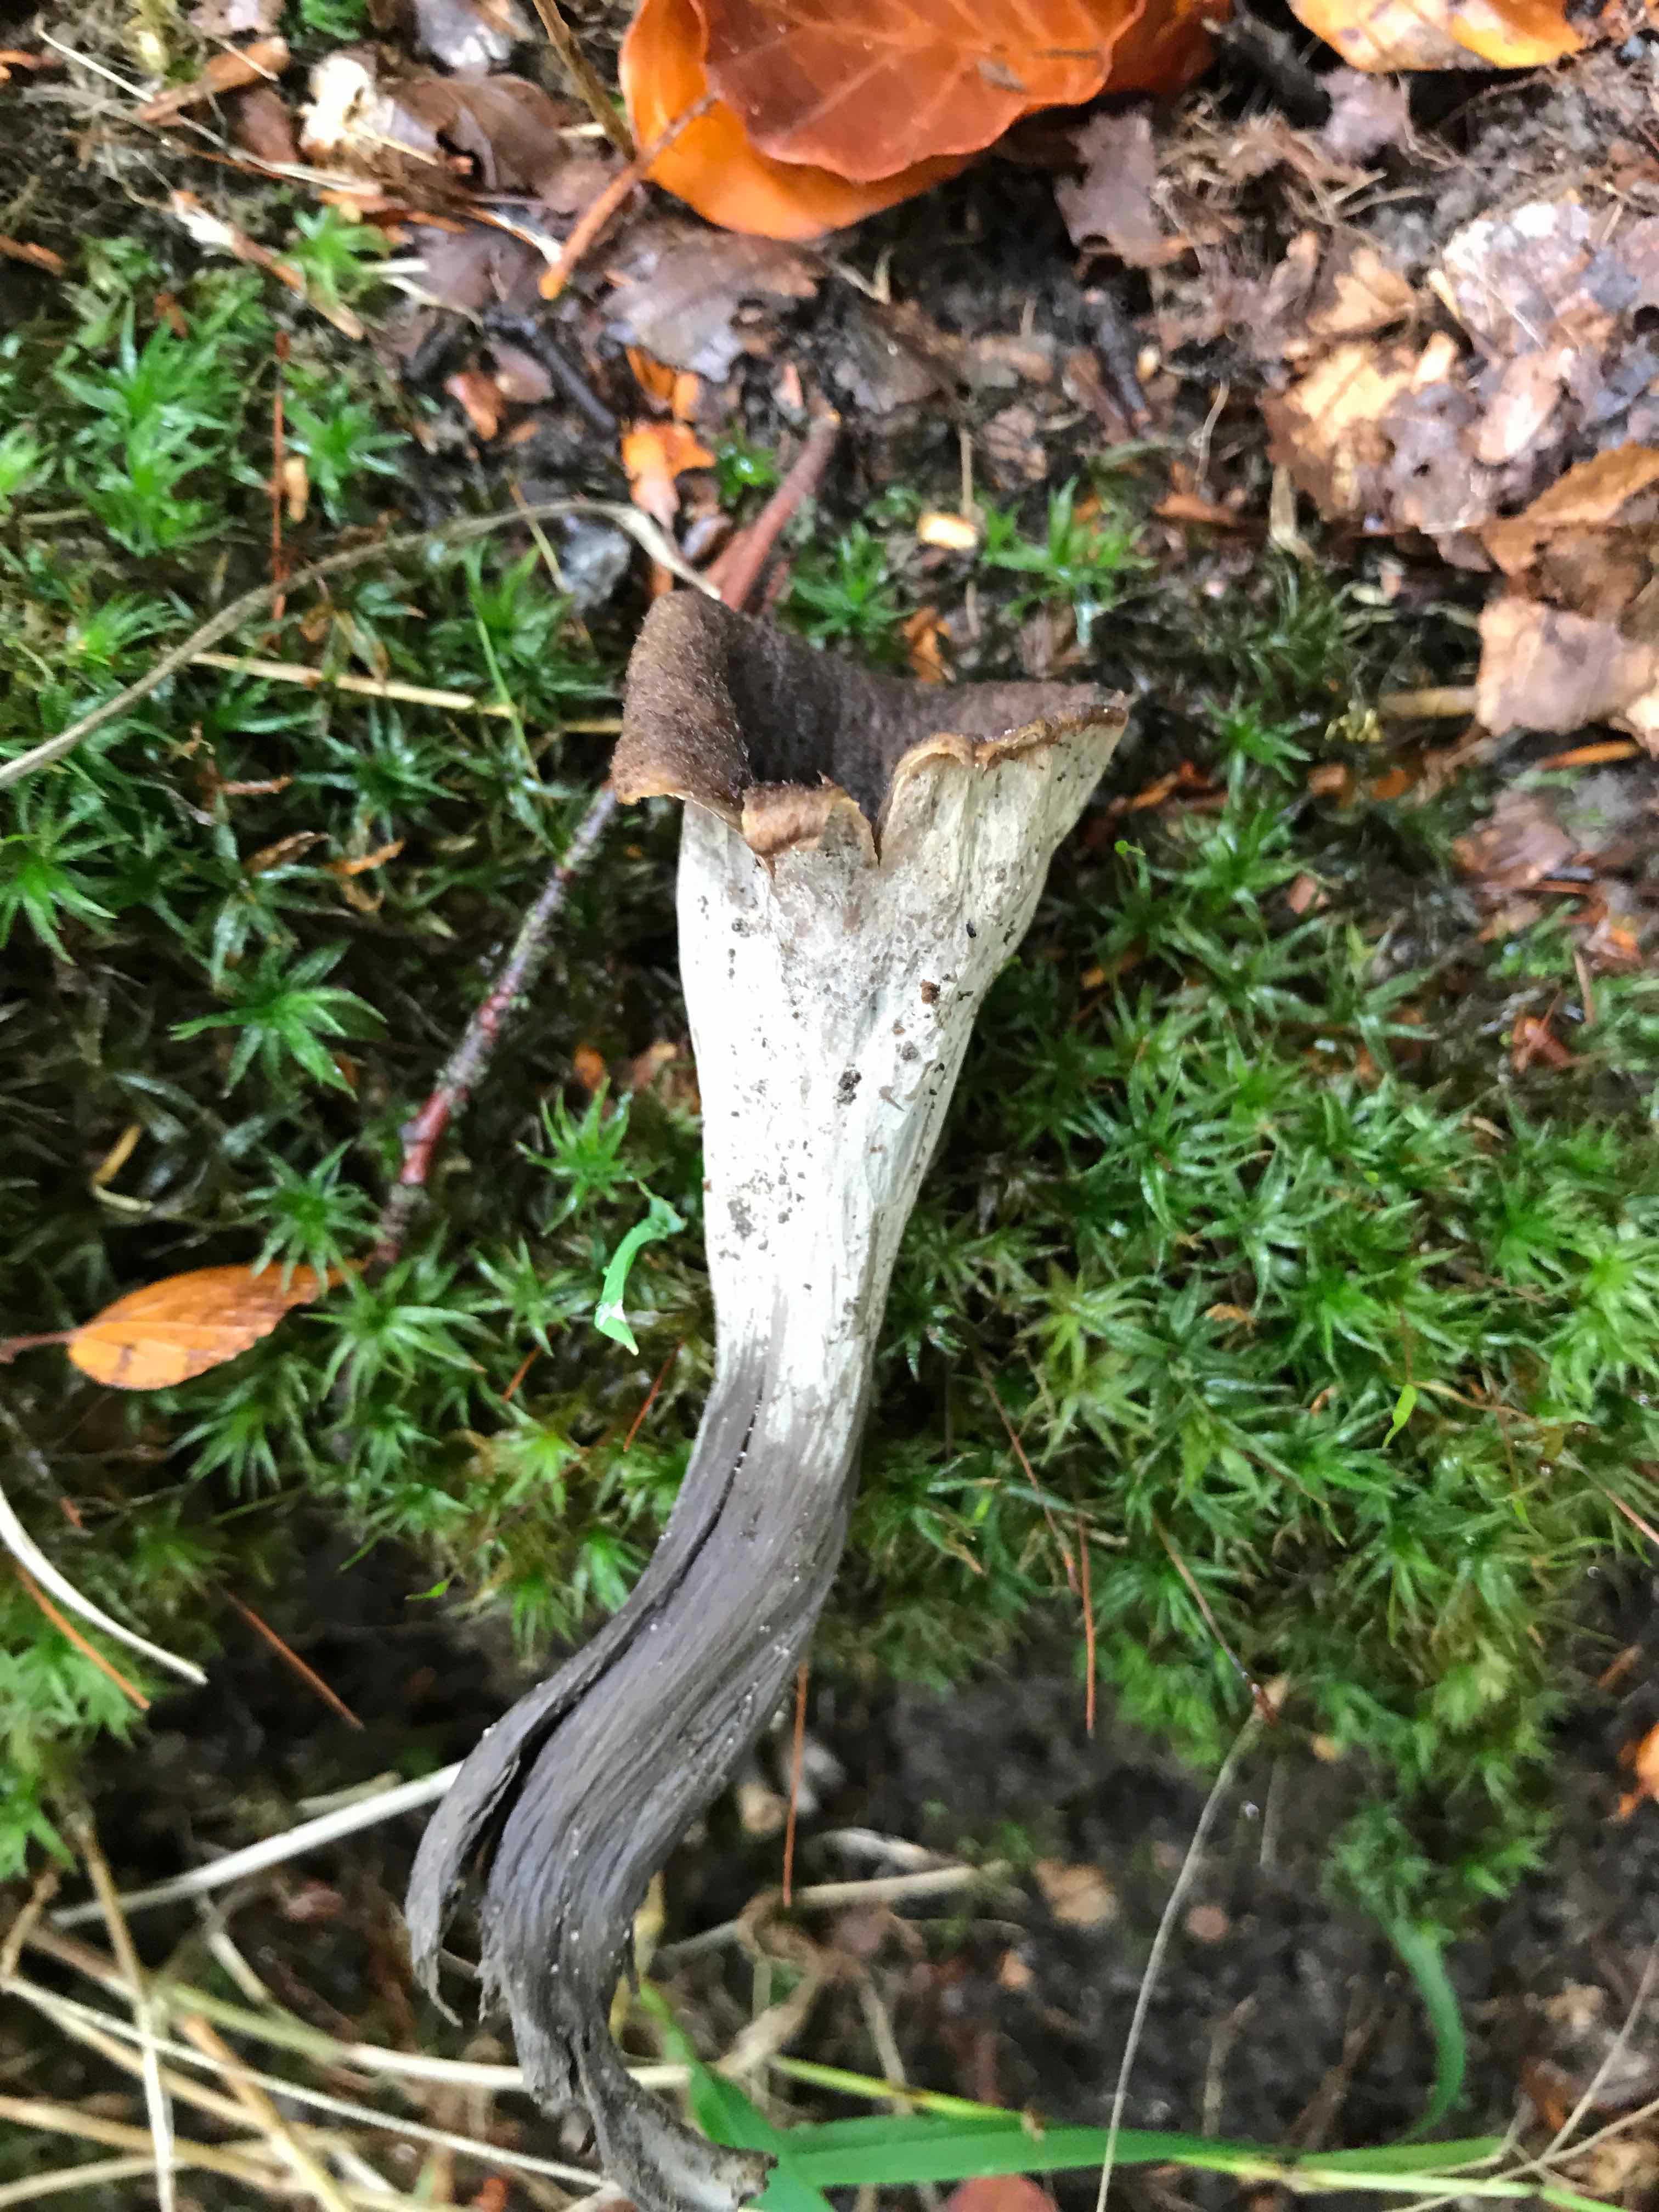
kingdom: Fungi
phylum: Basidiomycota
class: Agaricomycetes
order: Cantharellales
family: Hydnaceae
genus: Craterellus
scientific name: Craterellus cornucopioides
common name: trompetsvamp
